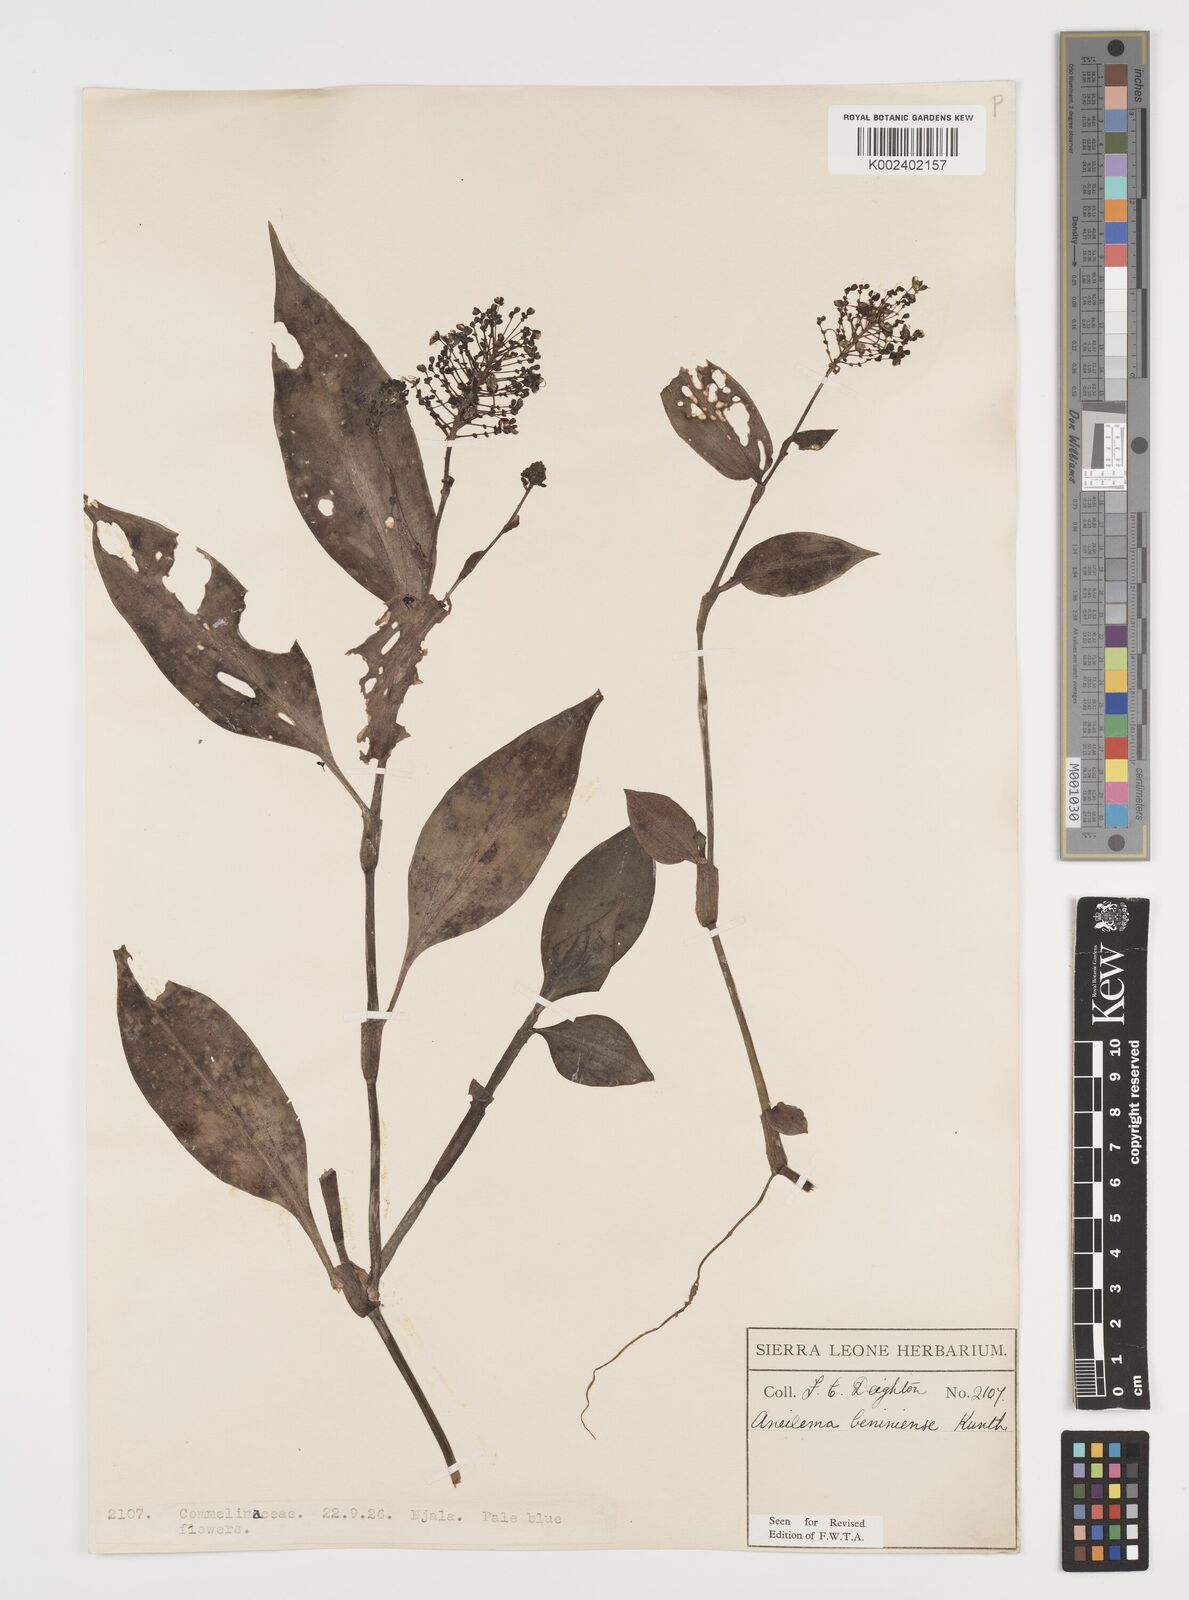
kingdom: Plantae
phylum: Tracheophyta
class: Liliopsida
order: Commelinales
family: Commelinaceae
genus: Aneilema
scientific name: Aneilema beniniense
